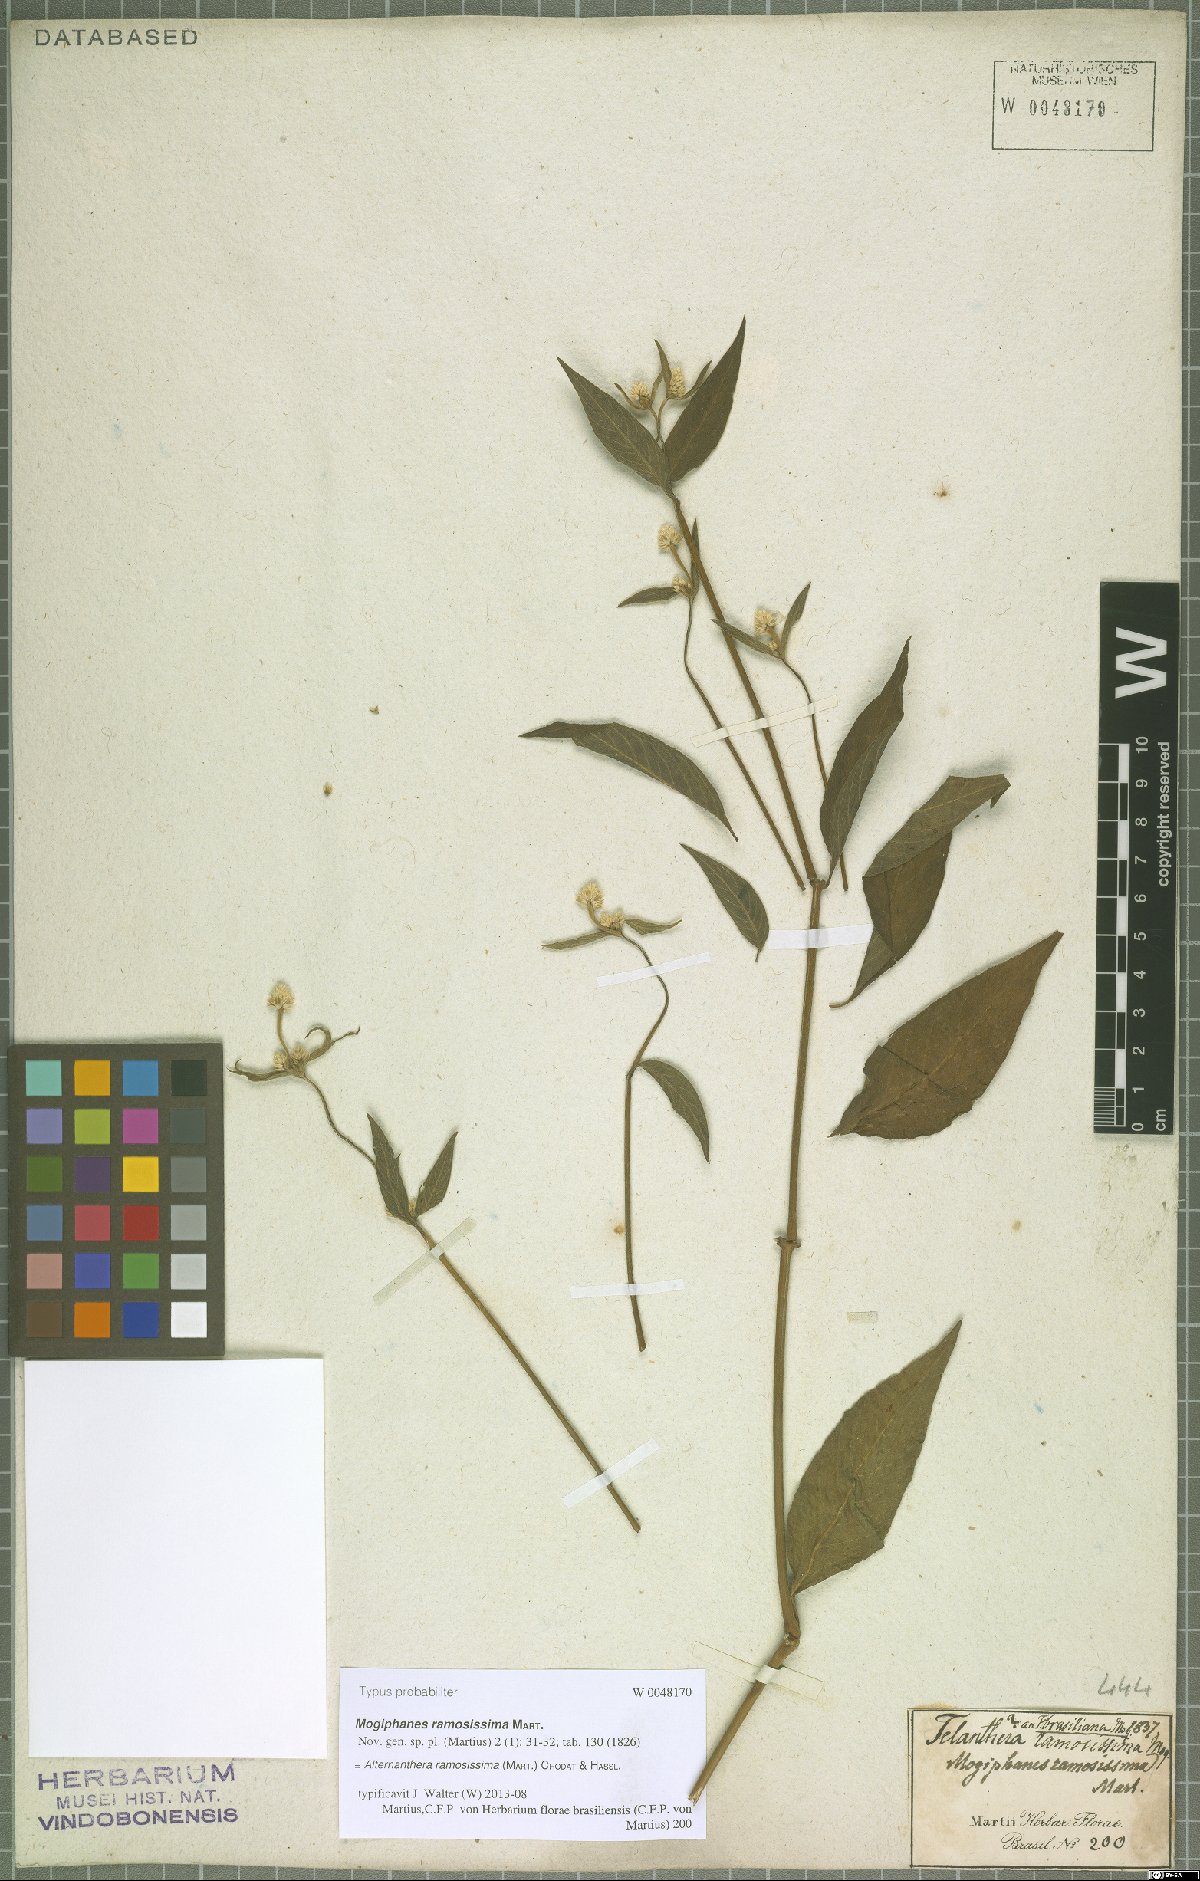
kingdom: Plantae
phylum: Tracheophyta
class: Magnoliopsida
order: Caryophyllales
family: Amaranthaceae
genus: Alternanthera
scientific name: Alternanthera ramosissima
